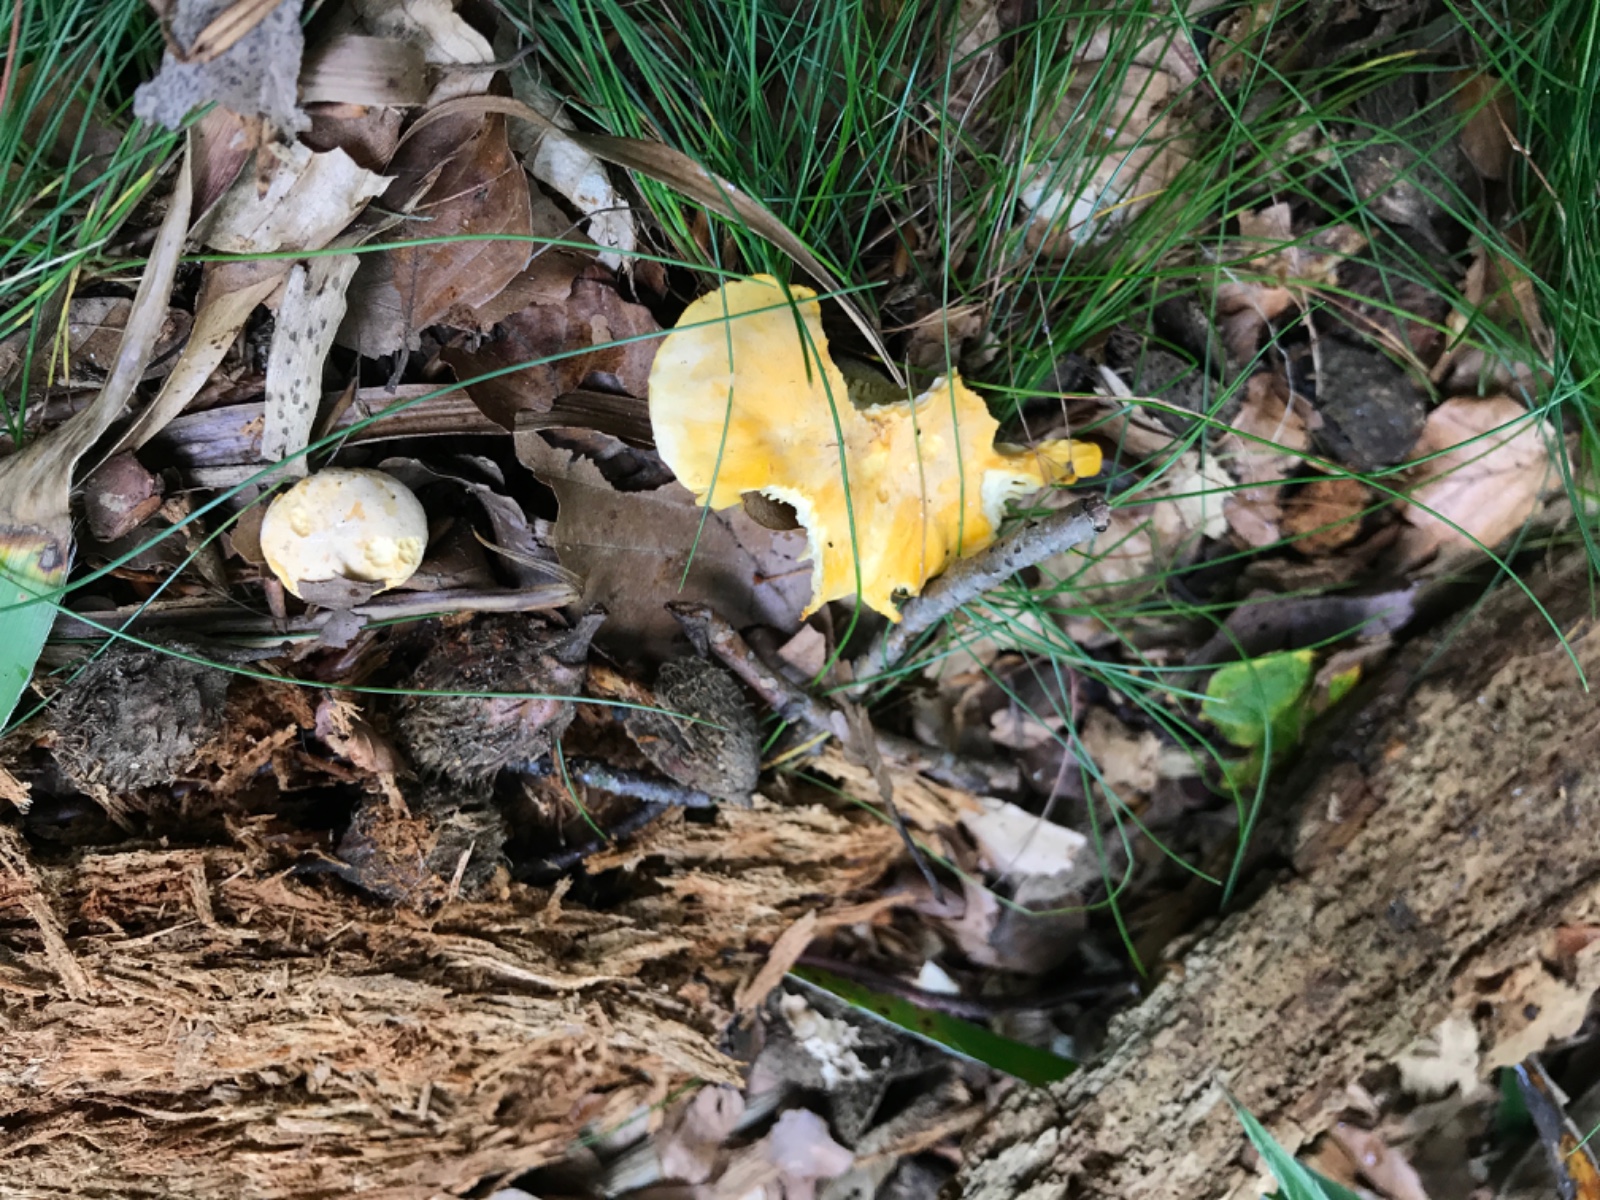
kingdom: Fungi
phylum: Basidiomycota
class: Agaricomycetes
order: Cantharellales
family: Hydnaceae
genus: Cantharellus
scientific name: Cantharellus pallens
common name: bleg kantarel
